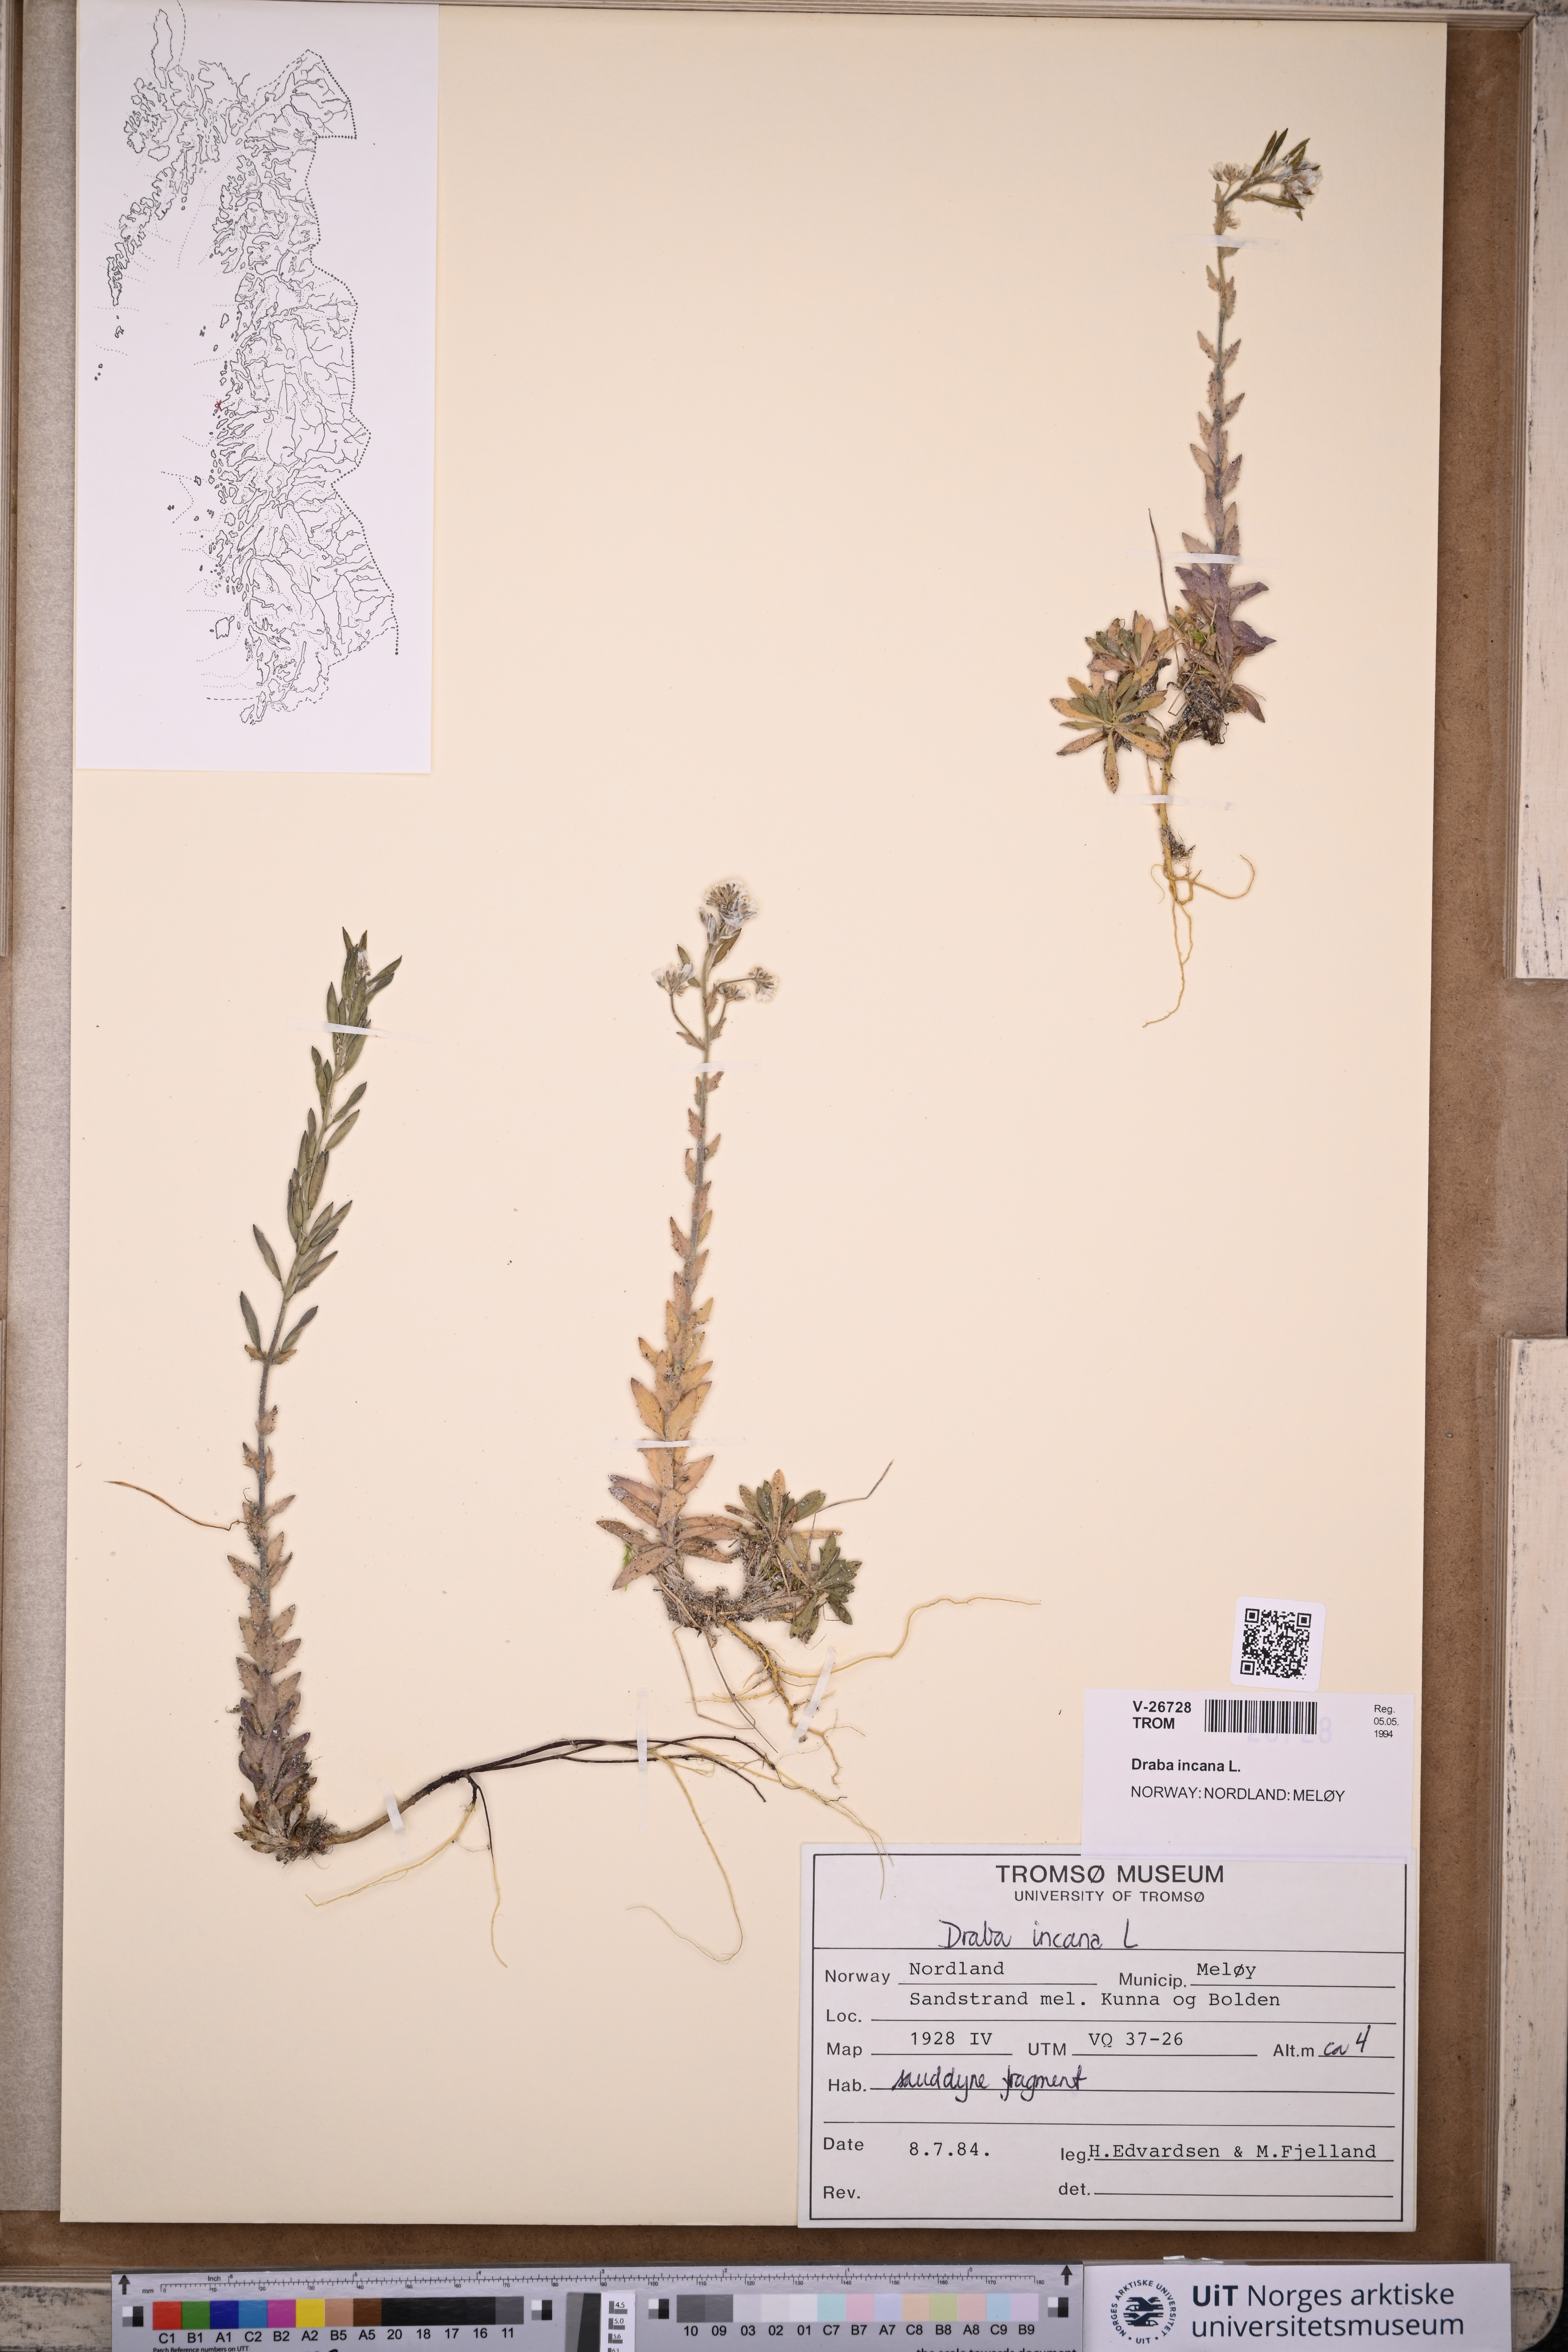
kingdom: Plantae
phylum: Tracheophyta
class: Magnoliopsida
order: Brassicales
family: Brassicaceae
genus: Draba
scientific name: Draba incana
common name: Hoary whitlow-grass
